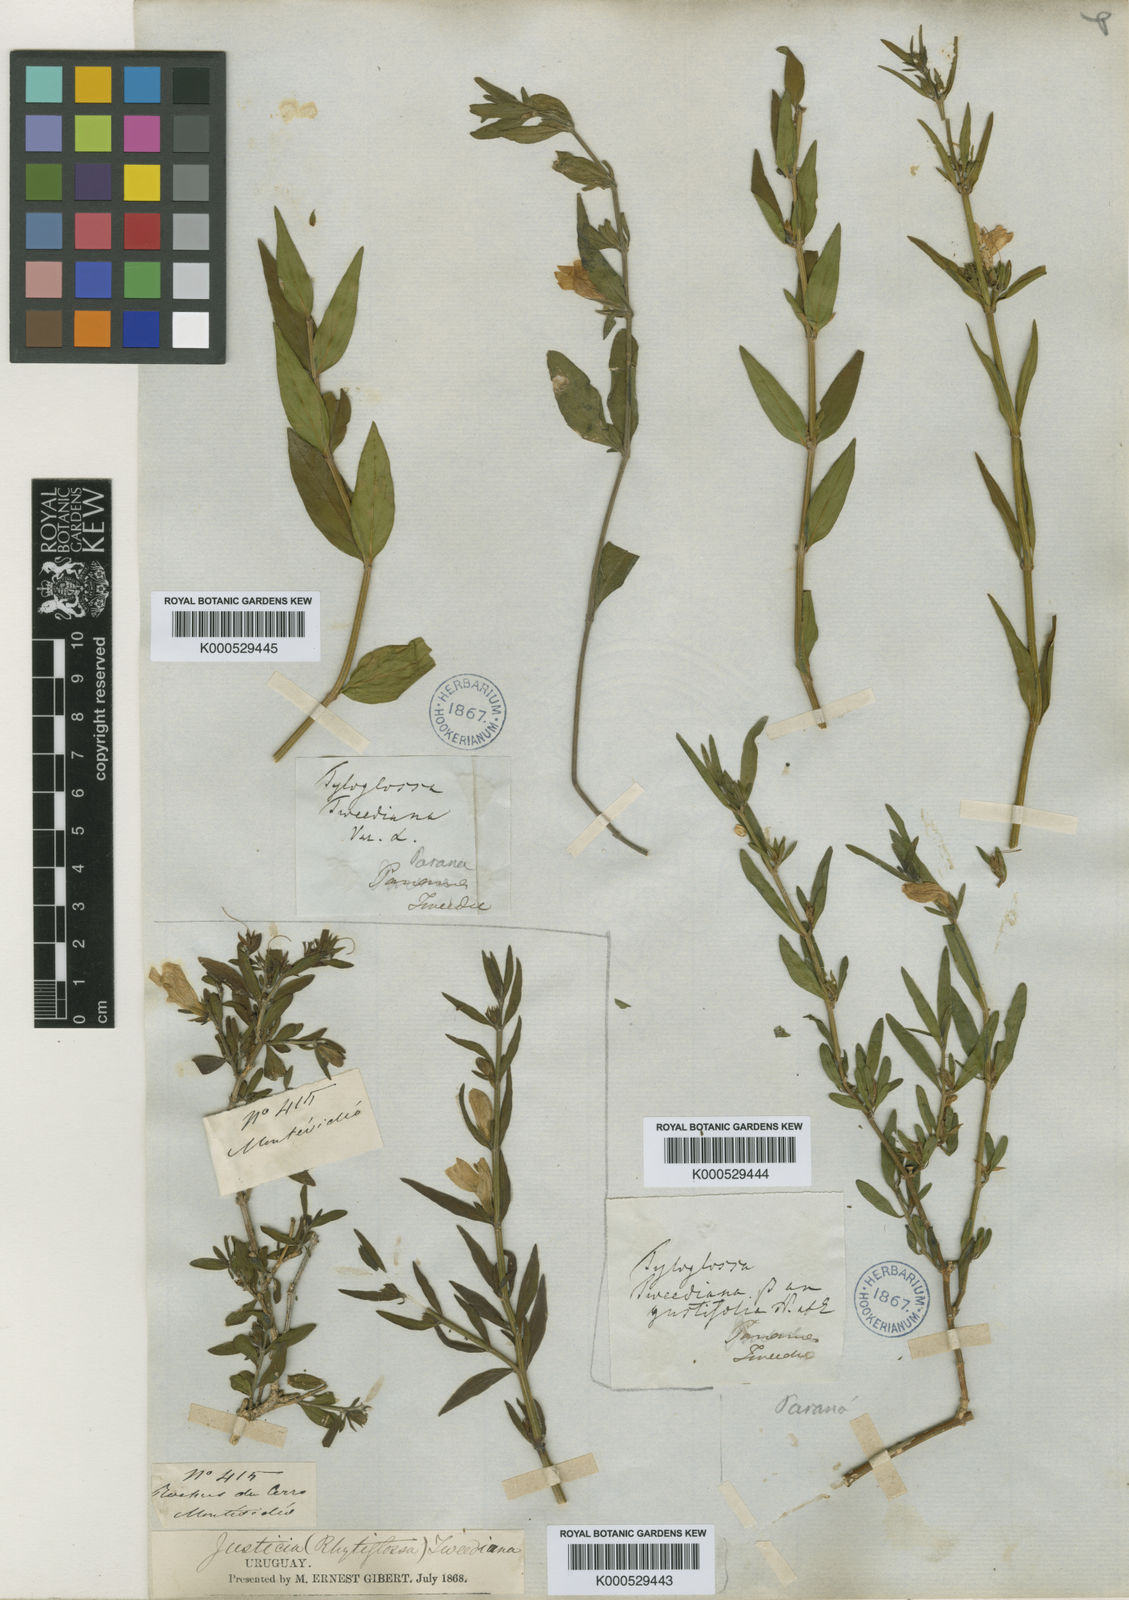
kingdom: Plantae
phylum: Tracheophyta
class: Magnoliopsida
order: Lamiales
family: Acanthaceae
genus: Justicia
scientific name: Justicia
